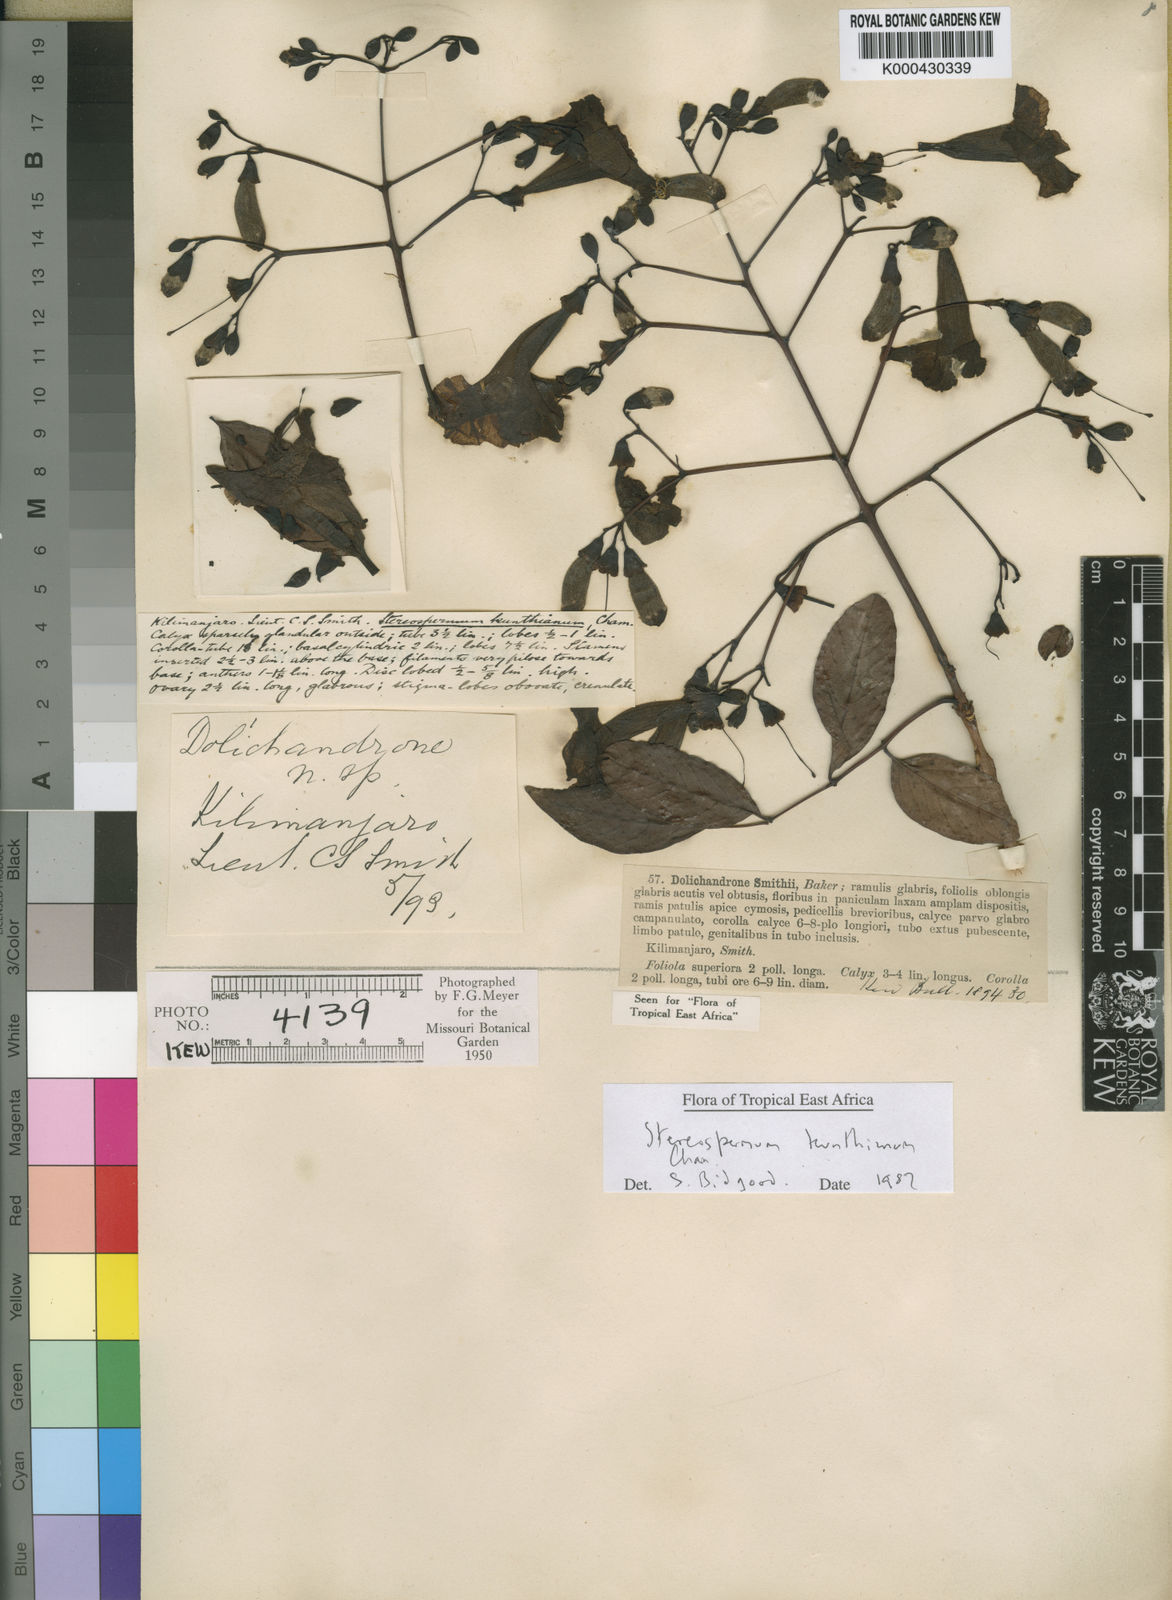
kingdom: Plantae
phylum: Tracheophyta
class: Magnoliopsida
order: Lamiales
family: Bignoniaceae
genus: Stereospermum
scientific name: Stereospermum kunthianum
